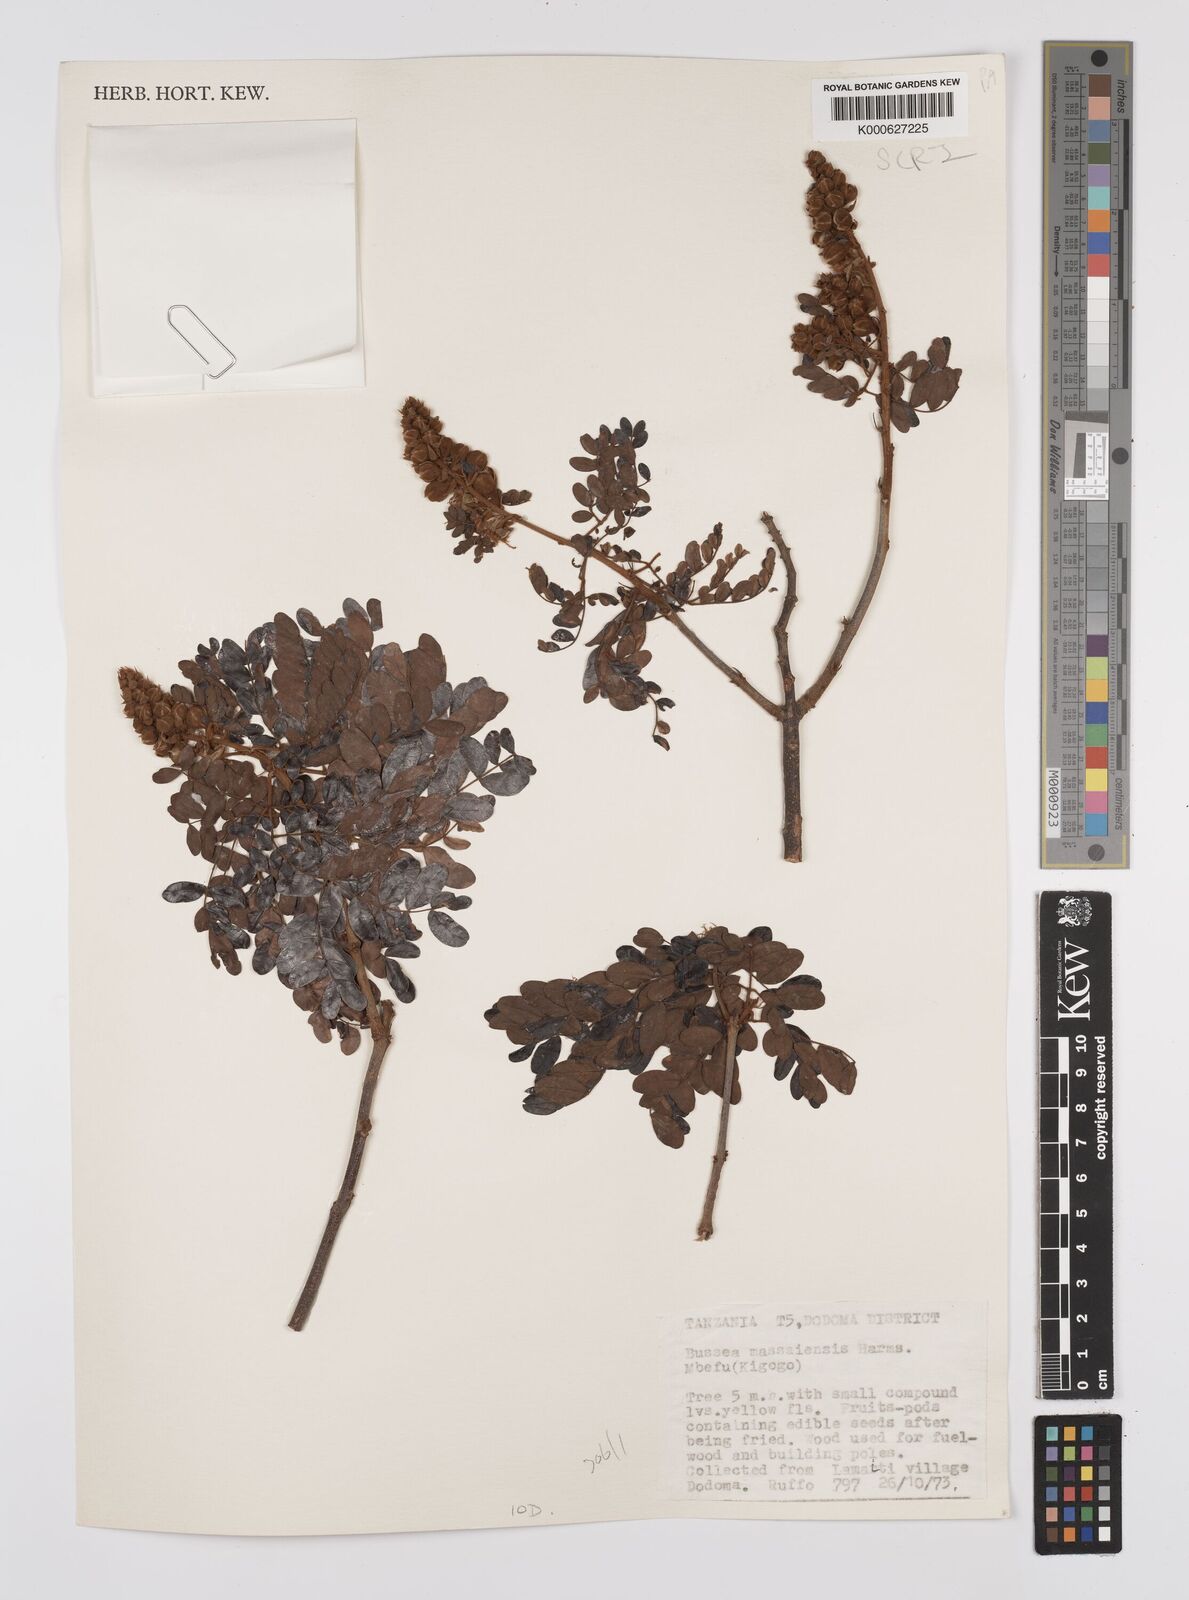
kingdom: Plantae
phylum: Tracheophyta
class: Magnoliopsida
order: Fabales
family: Fabaceae
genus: Bussea
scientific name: Bussea massaiensis
